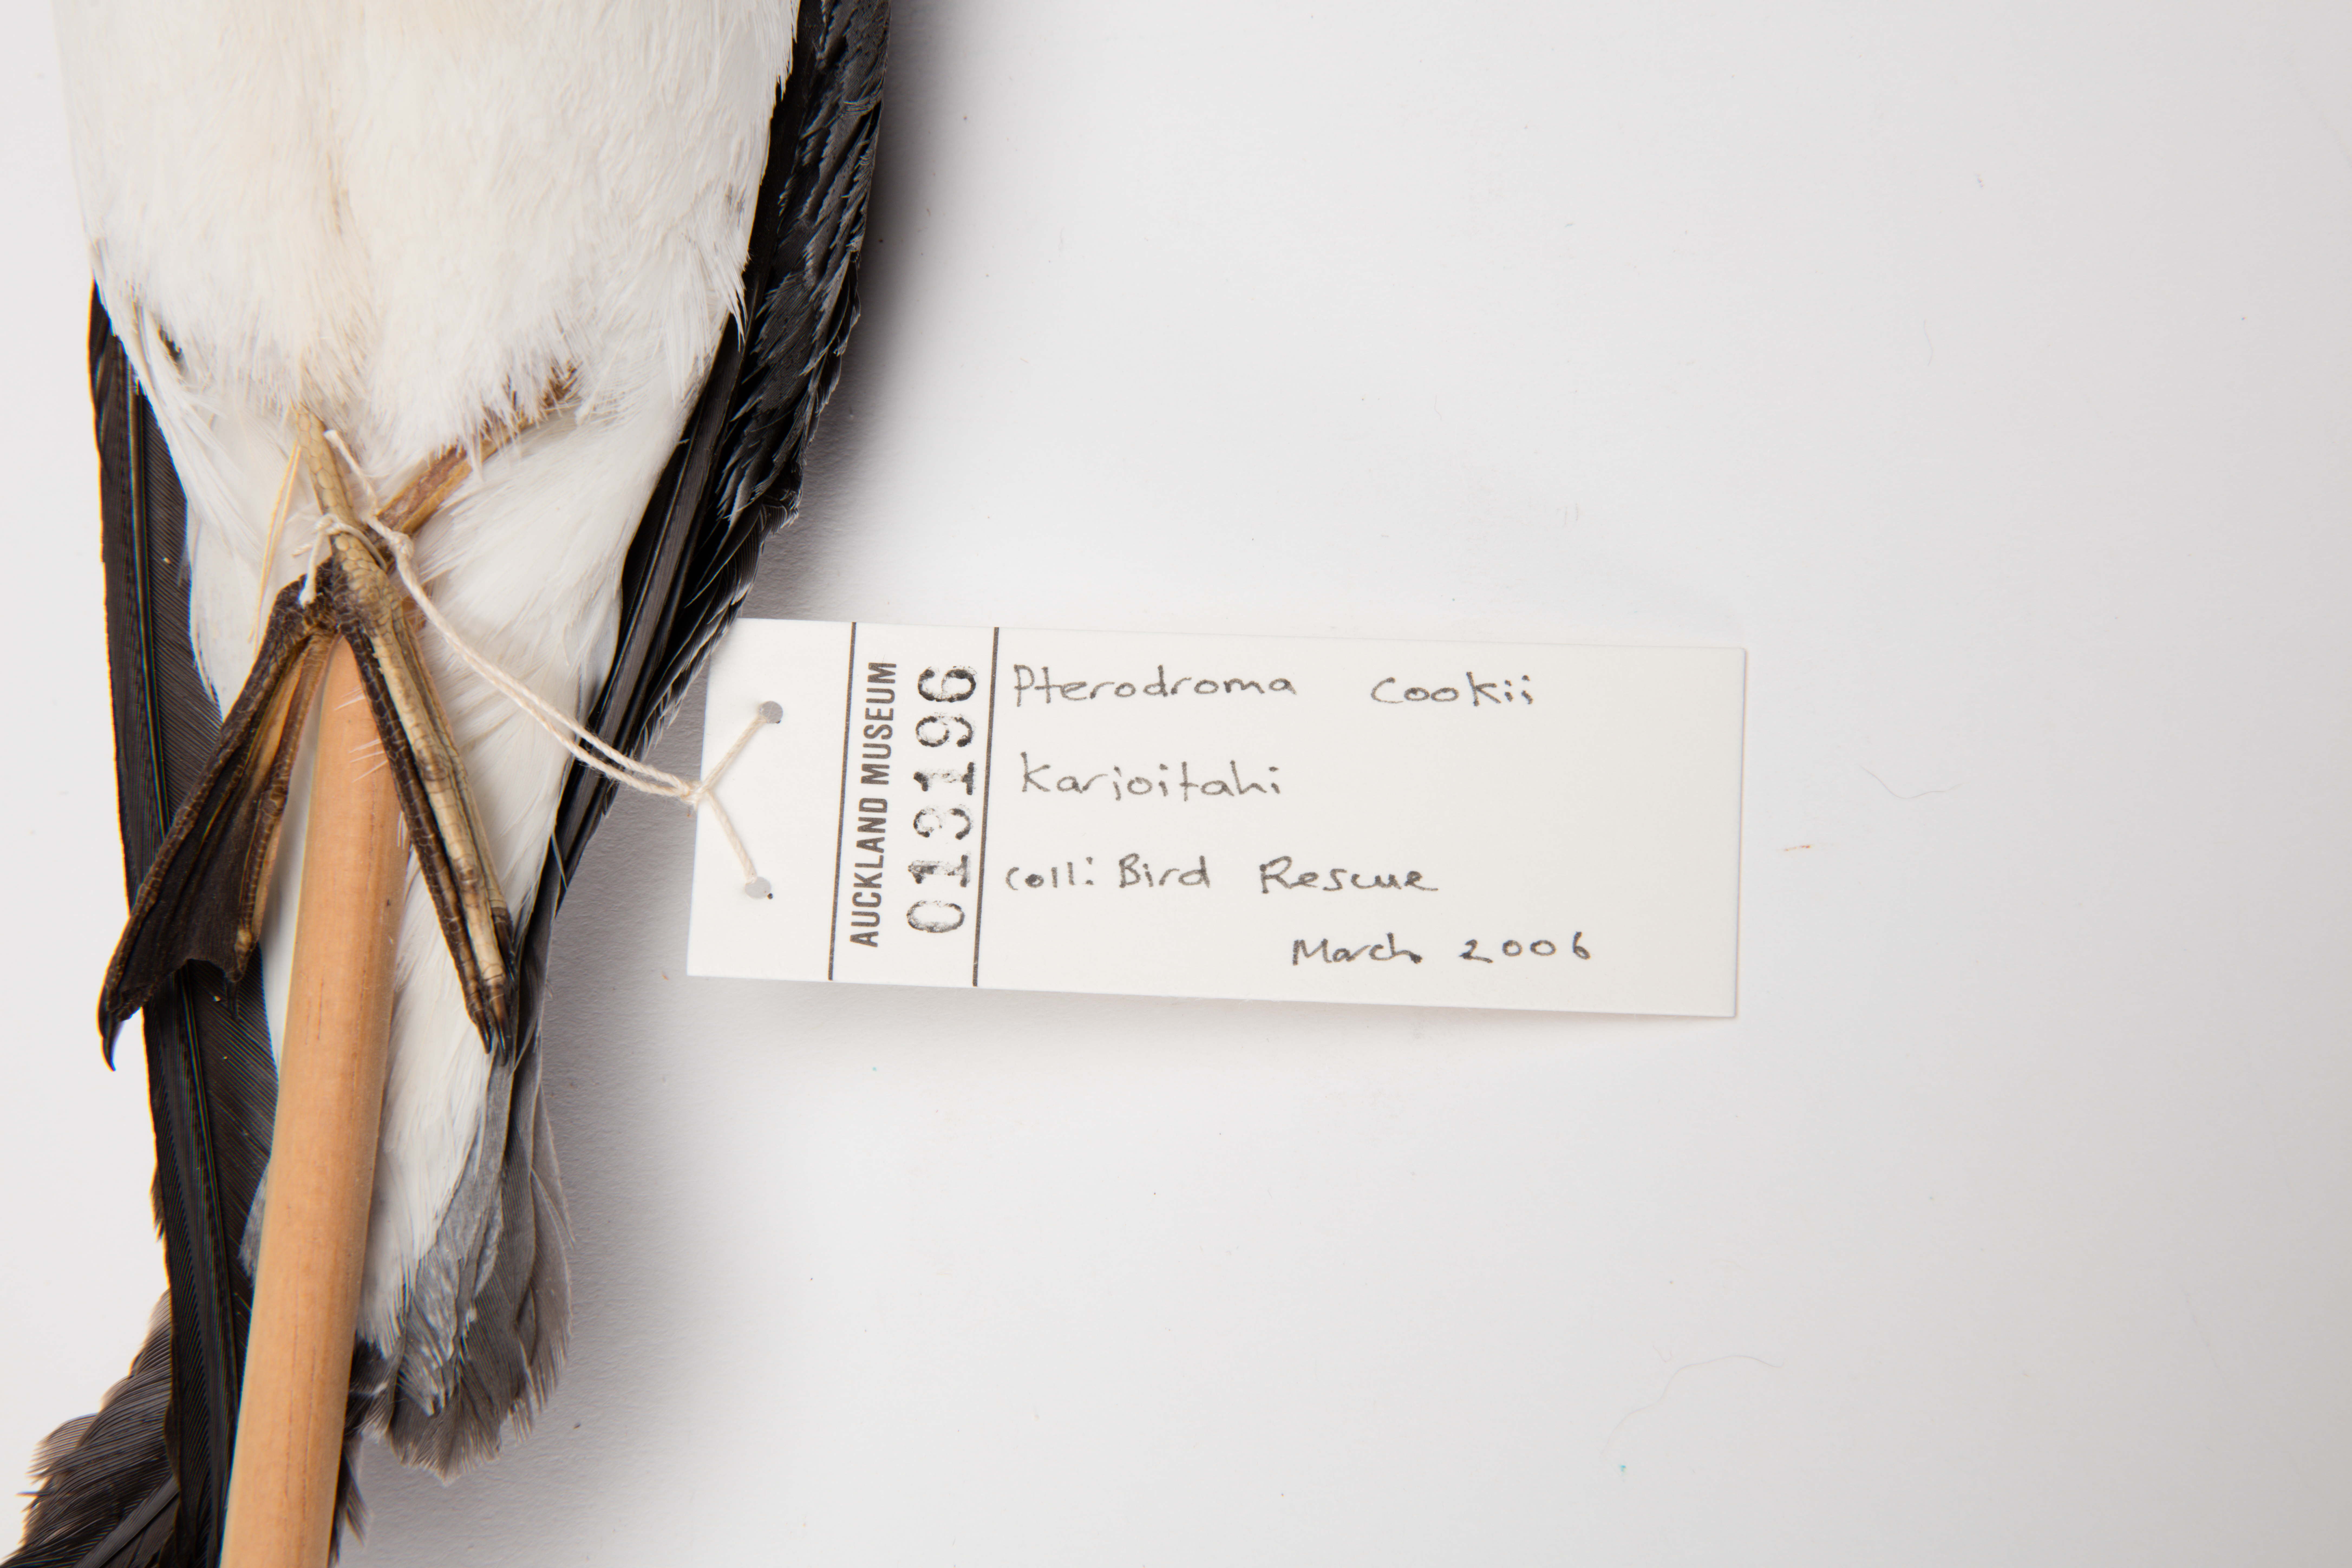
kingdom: Animalia
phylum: Chordata
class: Aves
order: Procellariiformes
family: Procellariidae
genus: Pterodroma
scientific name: Pterodroma cookii
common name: Cook's petrel
